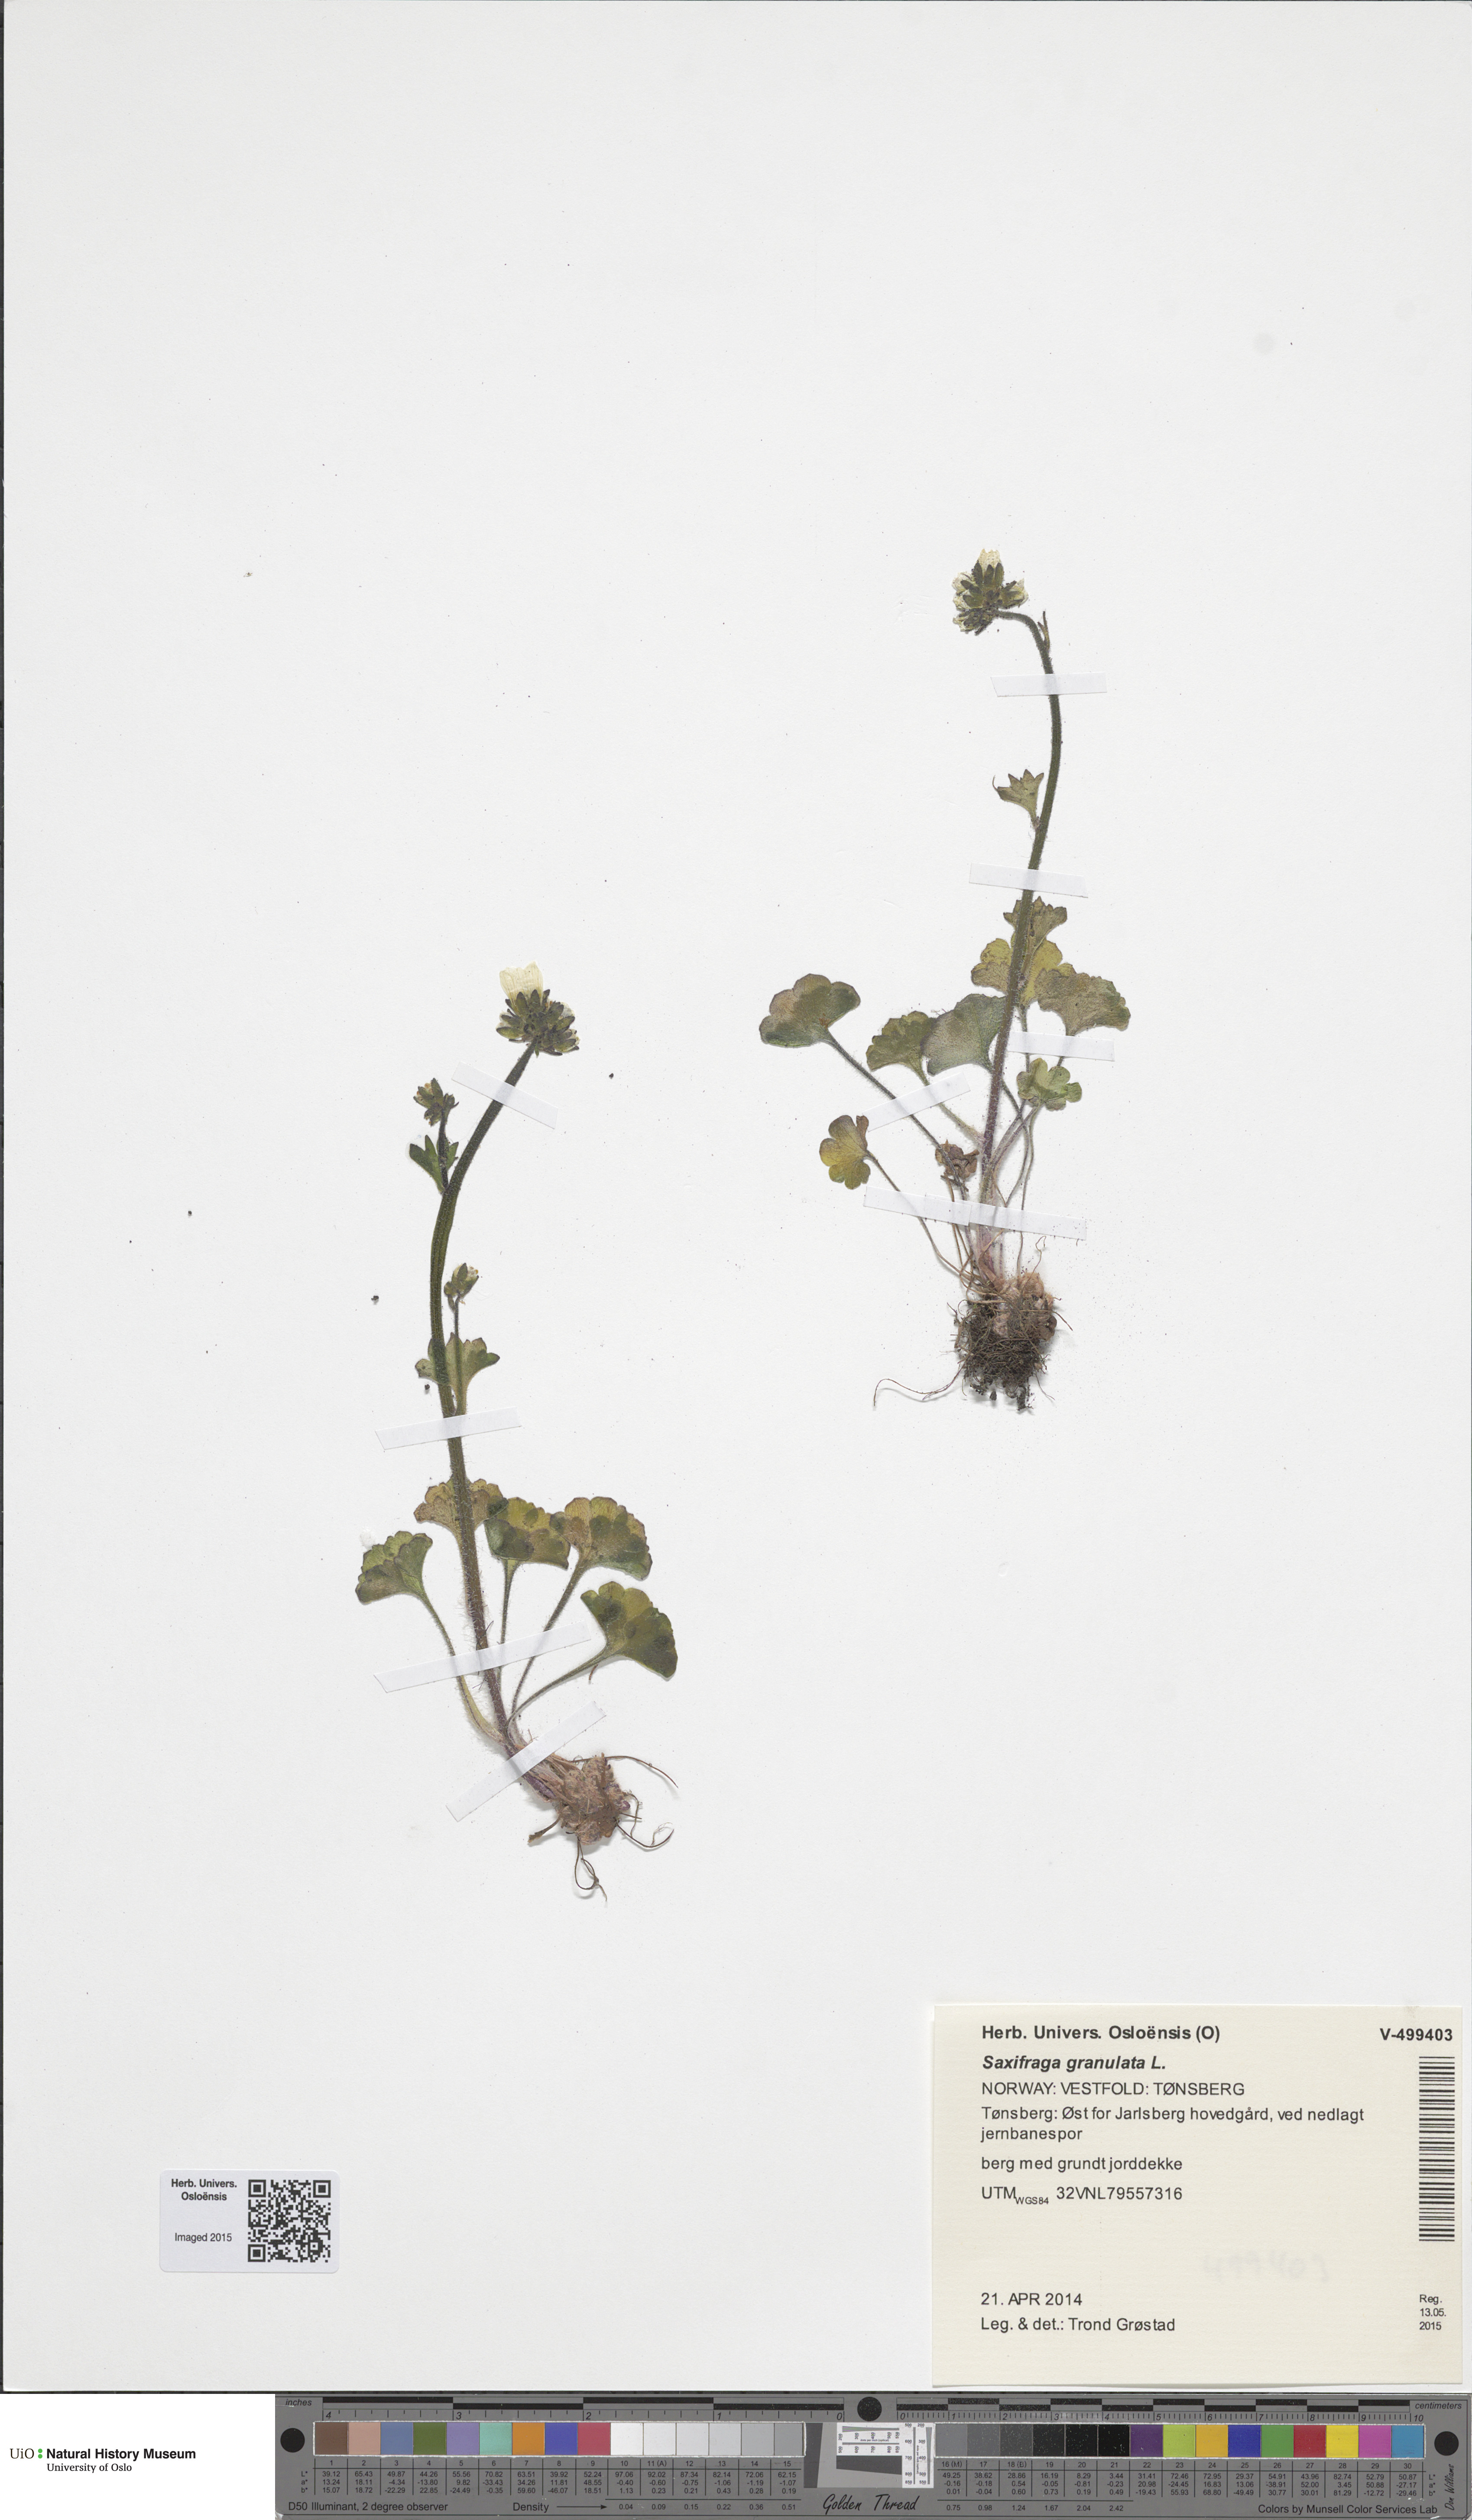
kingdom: Plantae
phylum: Tracheophyta
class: Magnoliopsida
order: Saxifragales
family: Saxifragaceae
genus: Saxifraga
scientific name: Saxifraga granulata
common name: Meadow saxifrage
